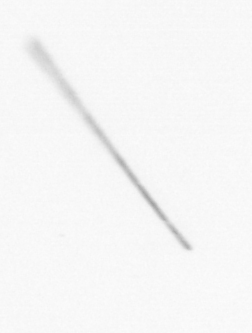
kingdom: Chromista
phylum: Ochrophyta
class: Bacillariophyceae
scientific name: Bacillariophyceae
